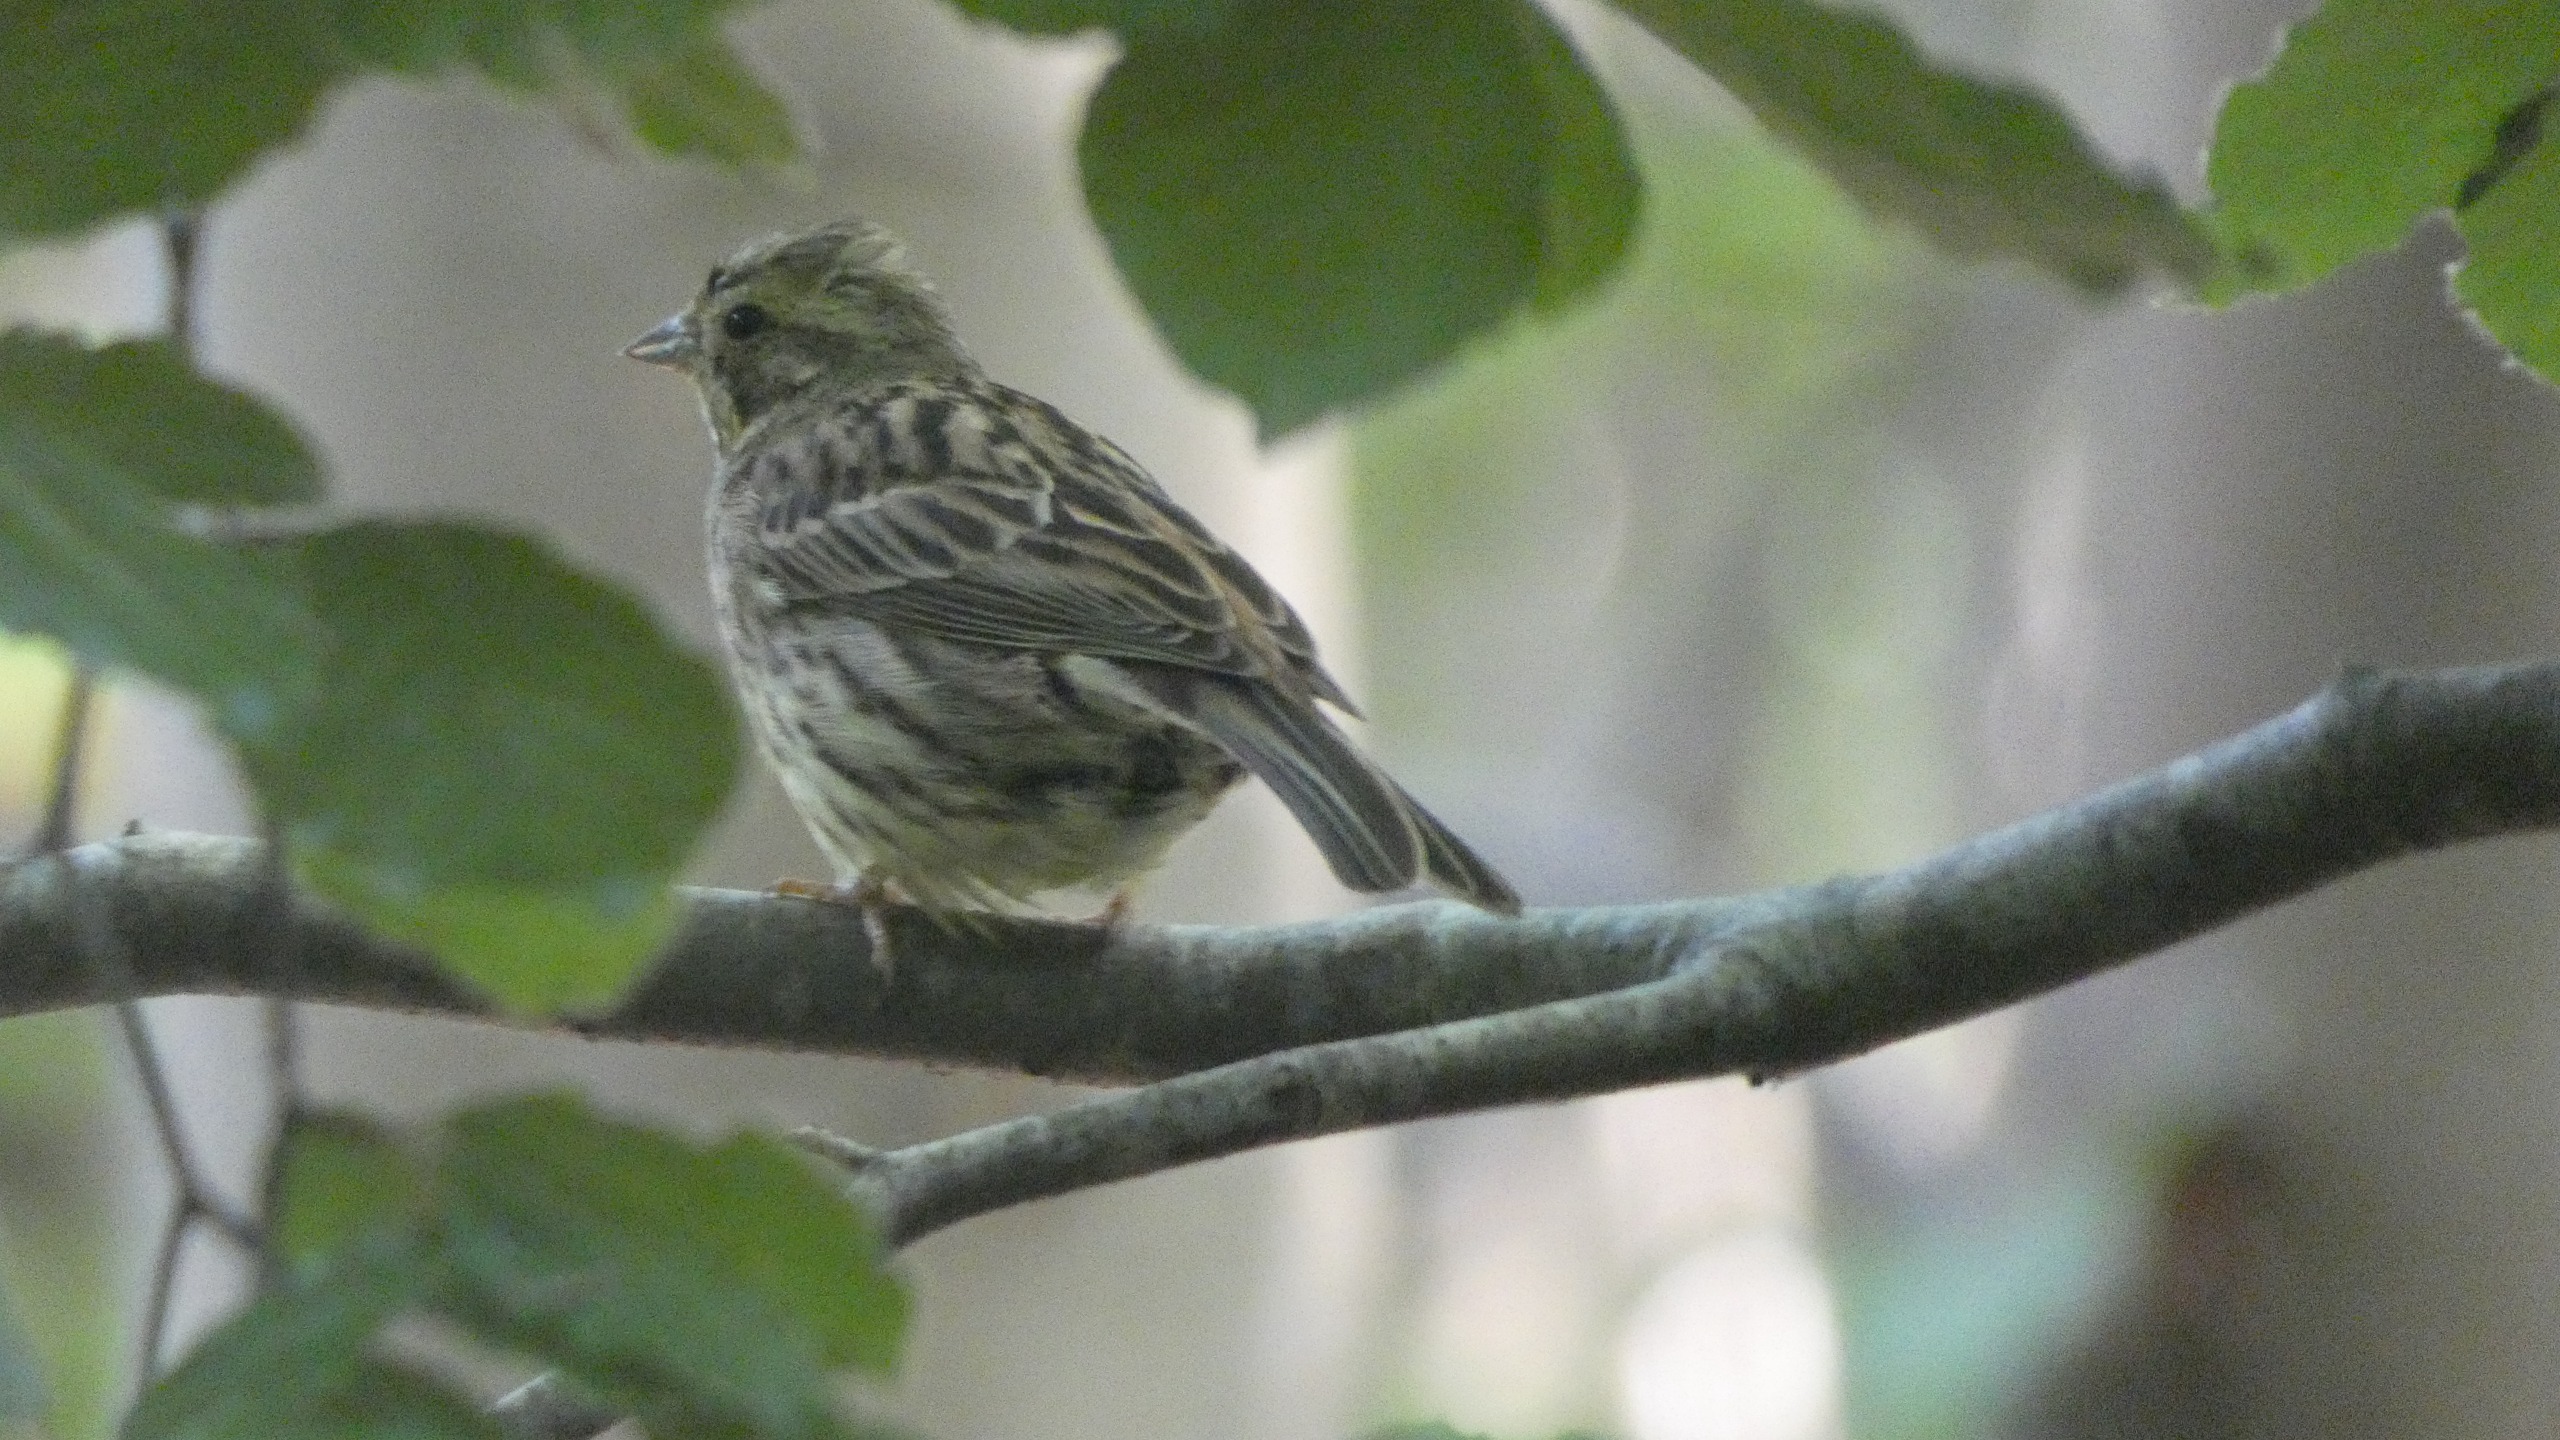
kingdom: Animalia
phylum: Chordata
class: Aves
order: Passeriformes
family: Emberizidae
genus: Emberiza
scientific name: Emberiza citrinella
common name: Gulspurv
